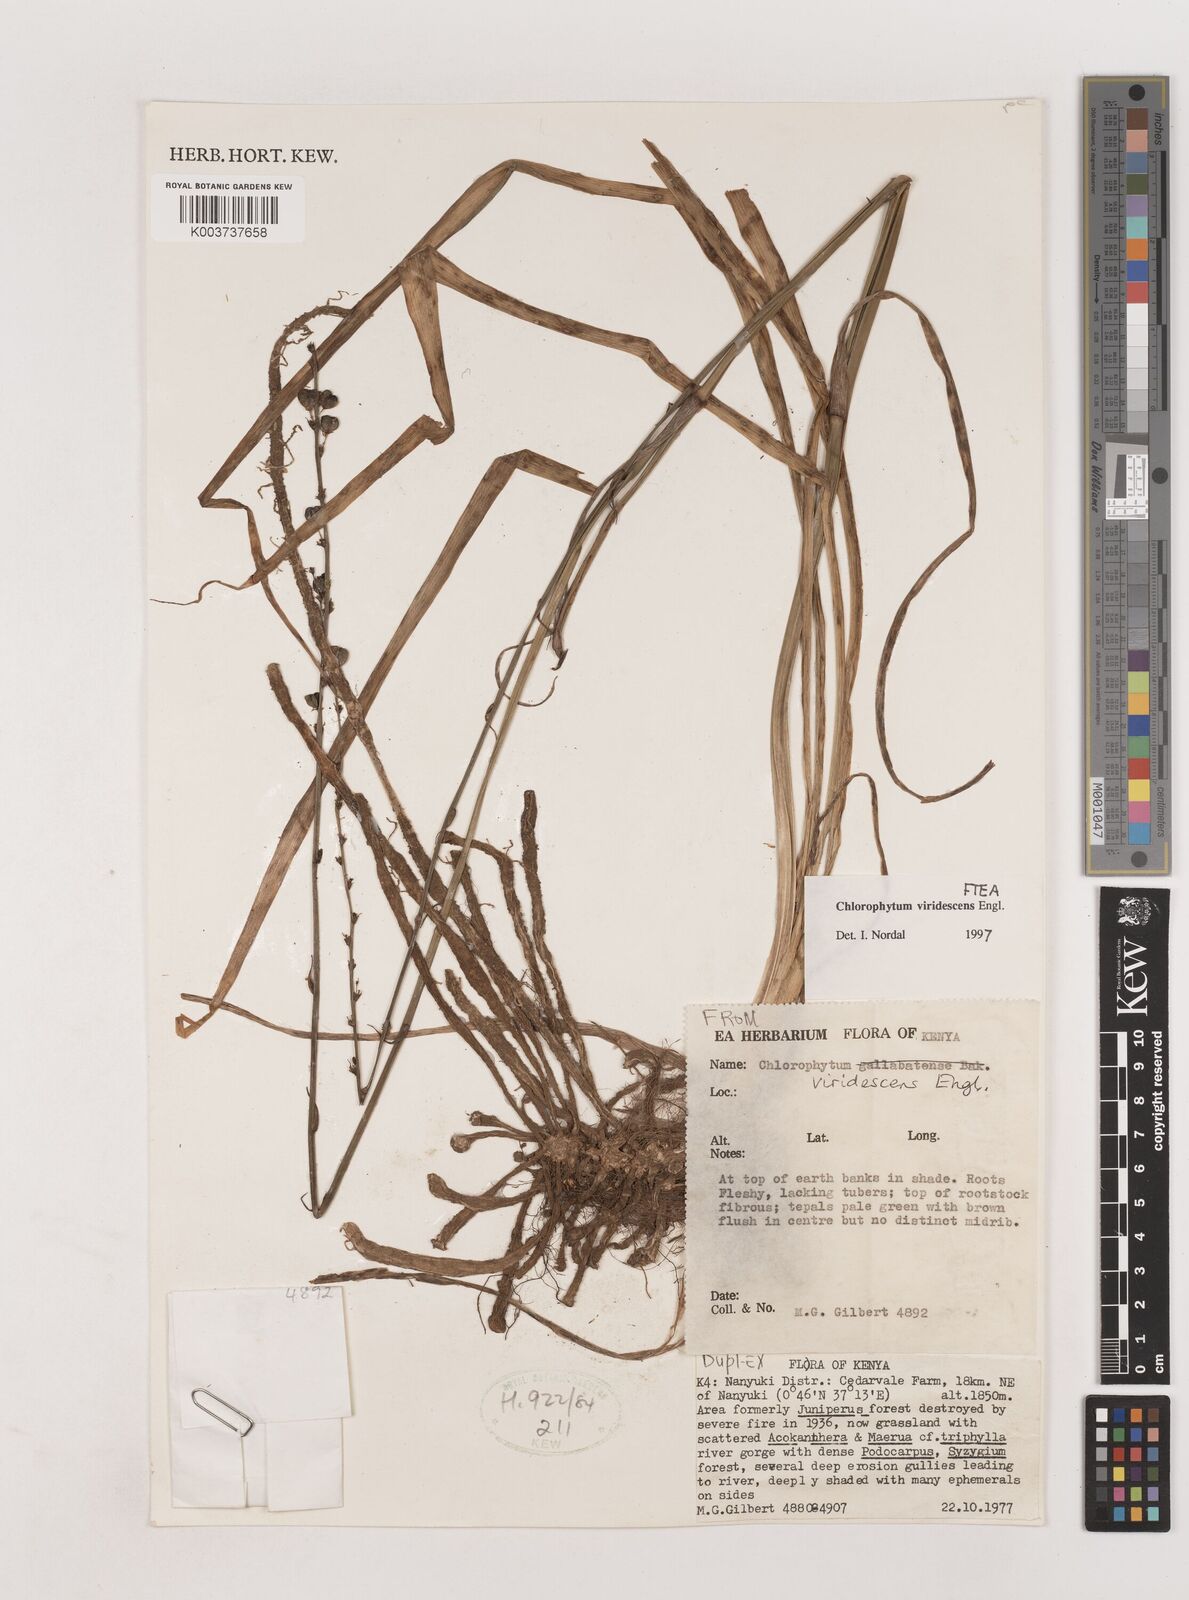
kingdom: Plantae
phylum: Tracheophyta
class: Liliopsida
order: Asparagales
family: Asparagaceae
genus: Chlorophytum
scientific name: Chlorophytum viridescens
